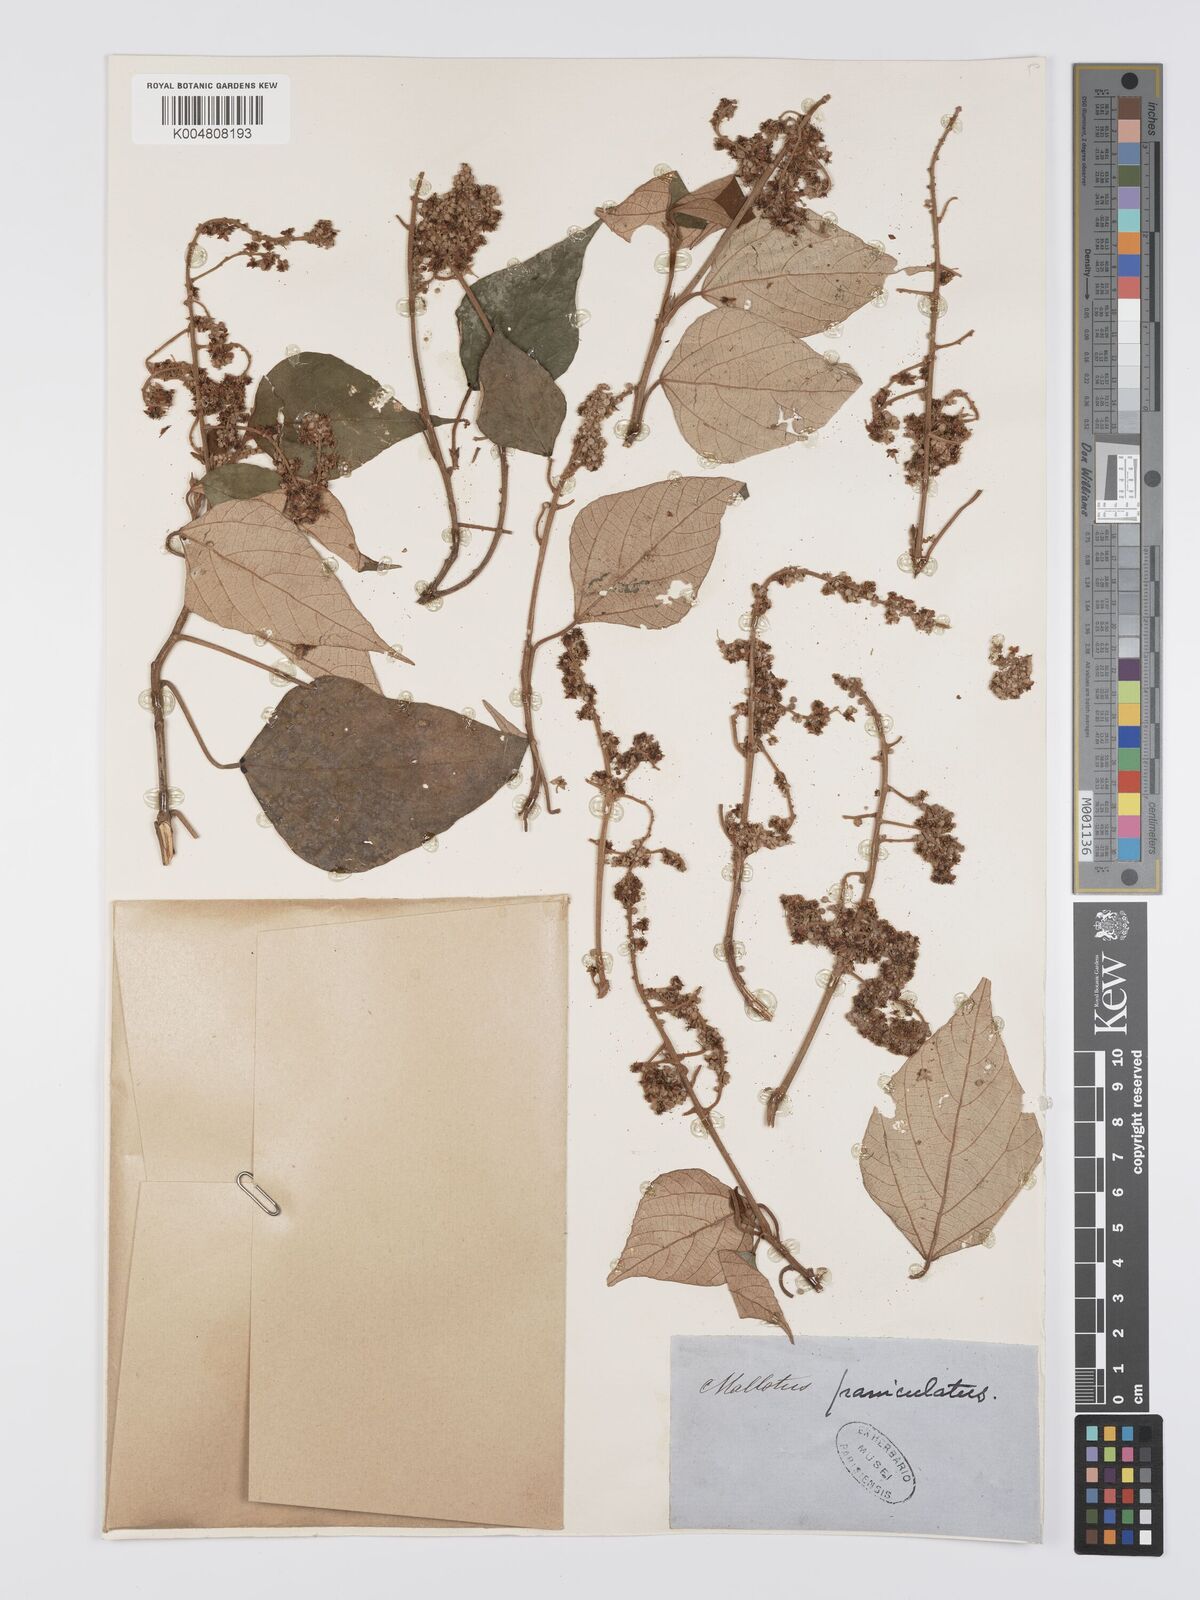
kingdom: Plantae
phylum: Tracheophyta
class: Magnoliopsida
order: Malpighiales
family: Euphorbiaceae
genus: Mallotus
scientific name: Mallotus paniculatus
